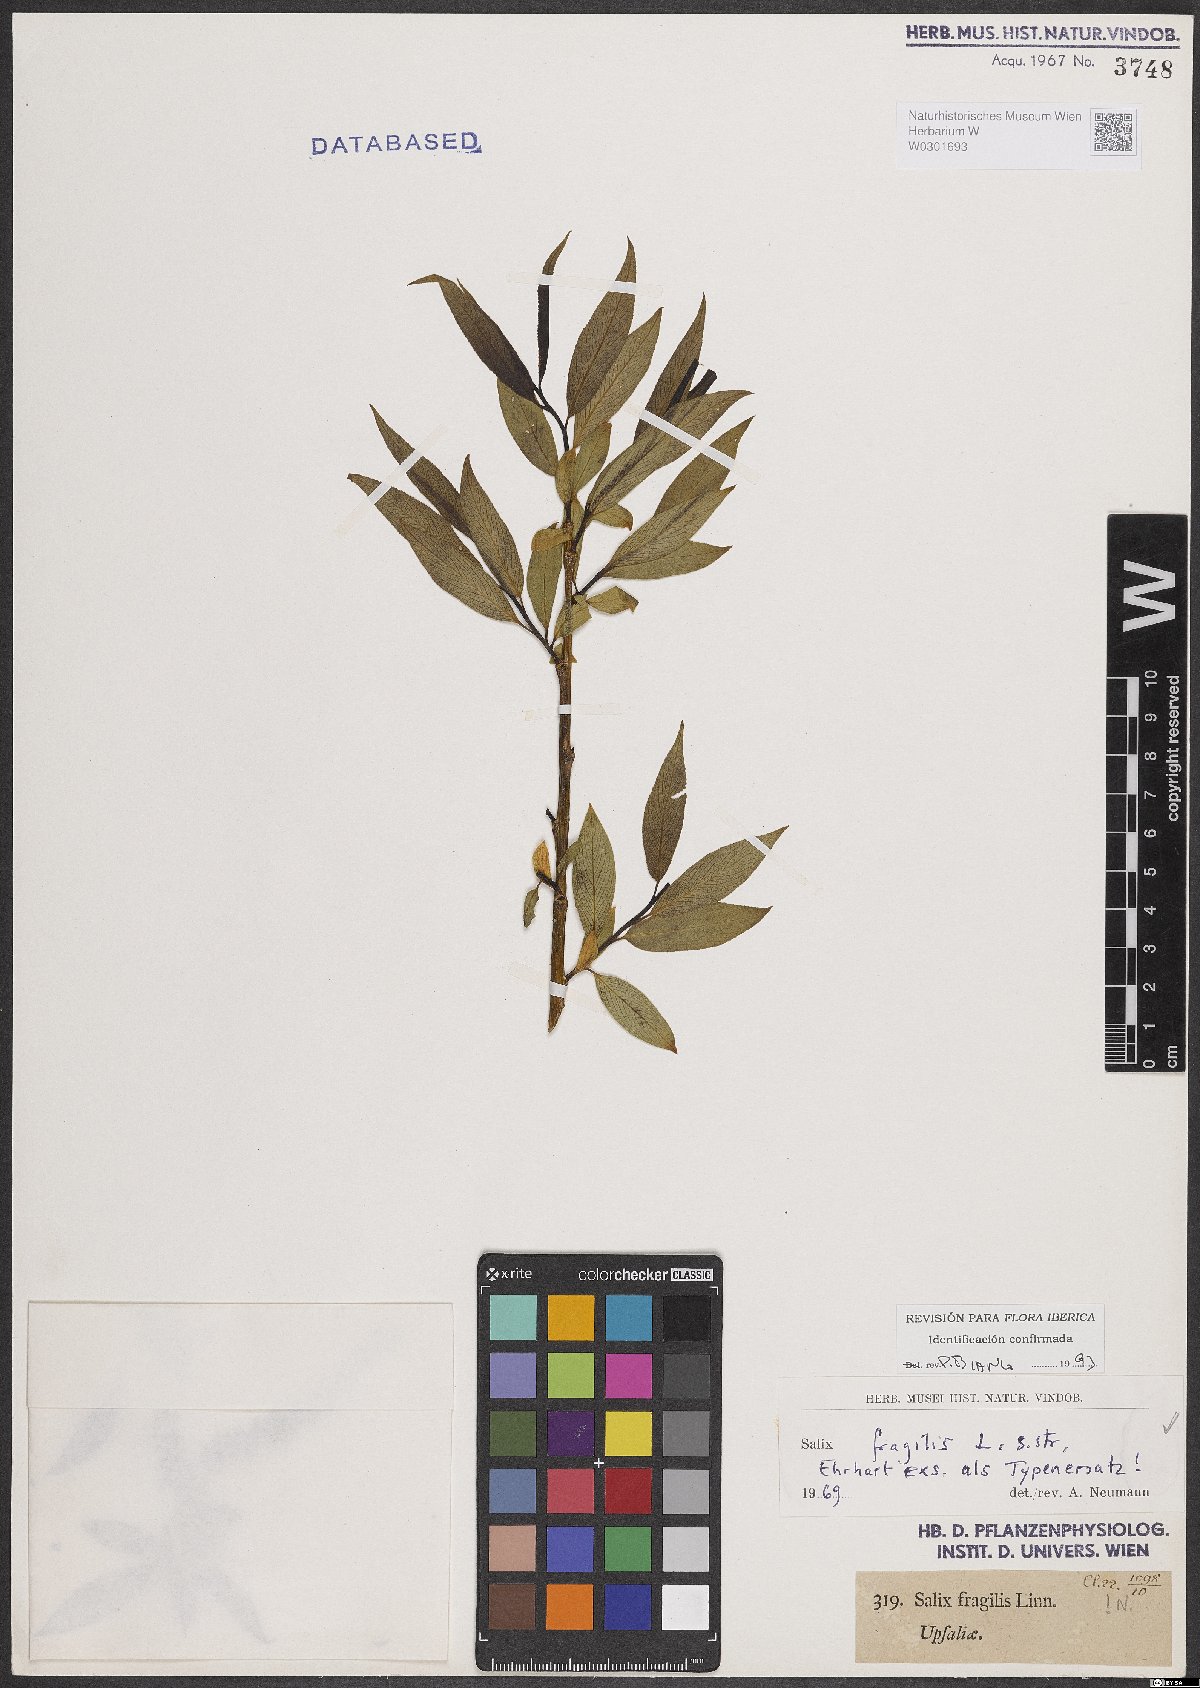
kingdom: Plantae
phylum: Tracheophyta
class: Magnoliopsida
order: Malpighiales
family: Salicaceae
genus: Salix
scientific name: Salix fragilis
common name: Crack willow
